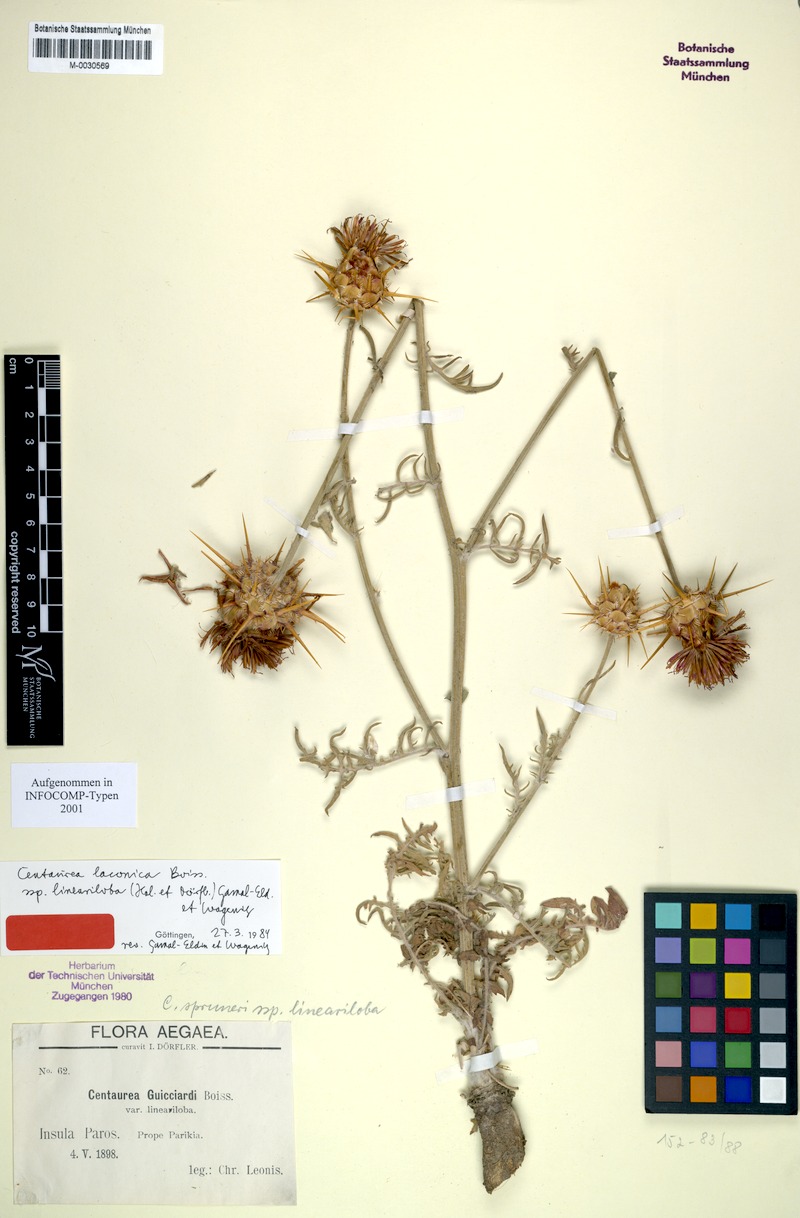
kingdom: Plantae
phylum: Tracheophyta
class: Magnoliopsida
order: Asterales
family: Asteraceae
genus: Centaurea
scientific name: Centaurea laconica
